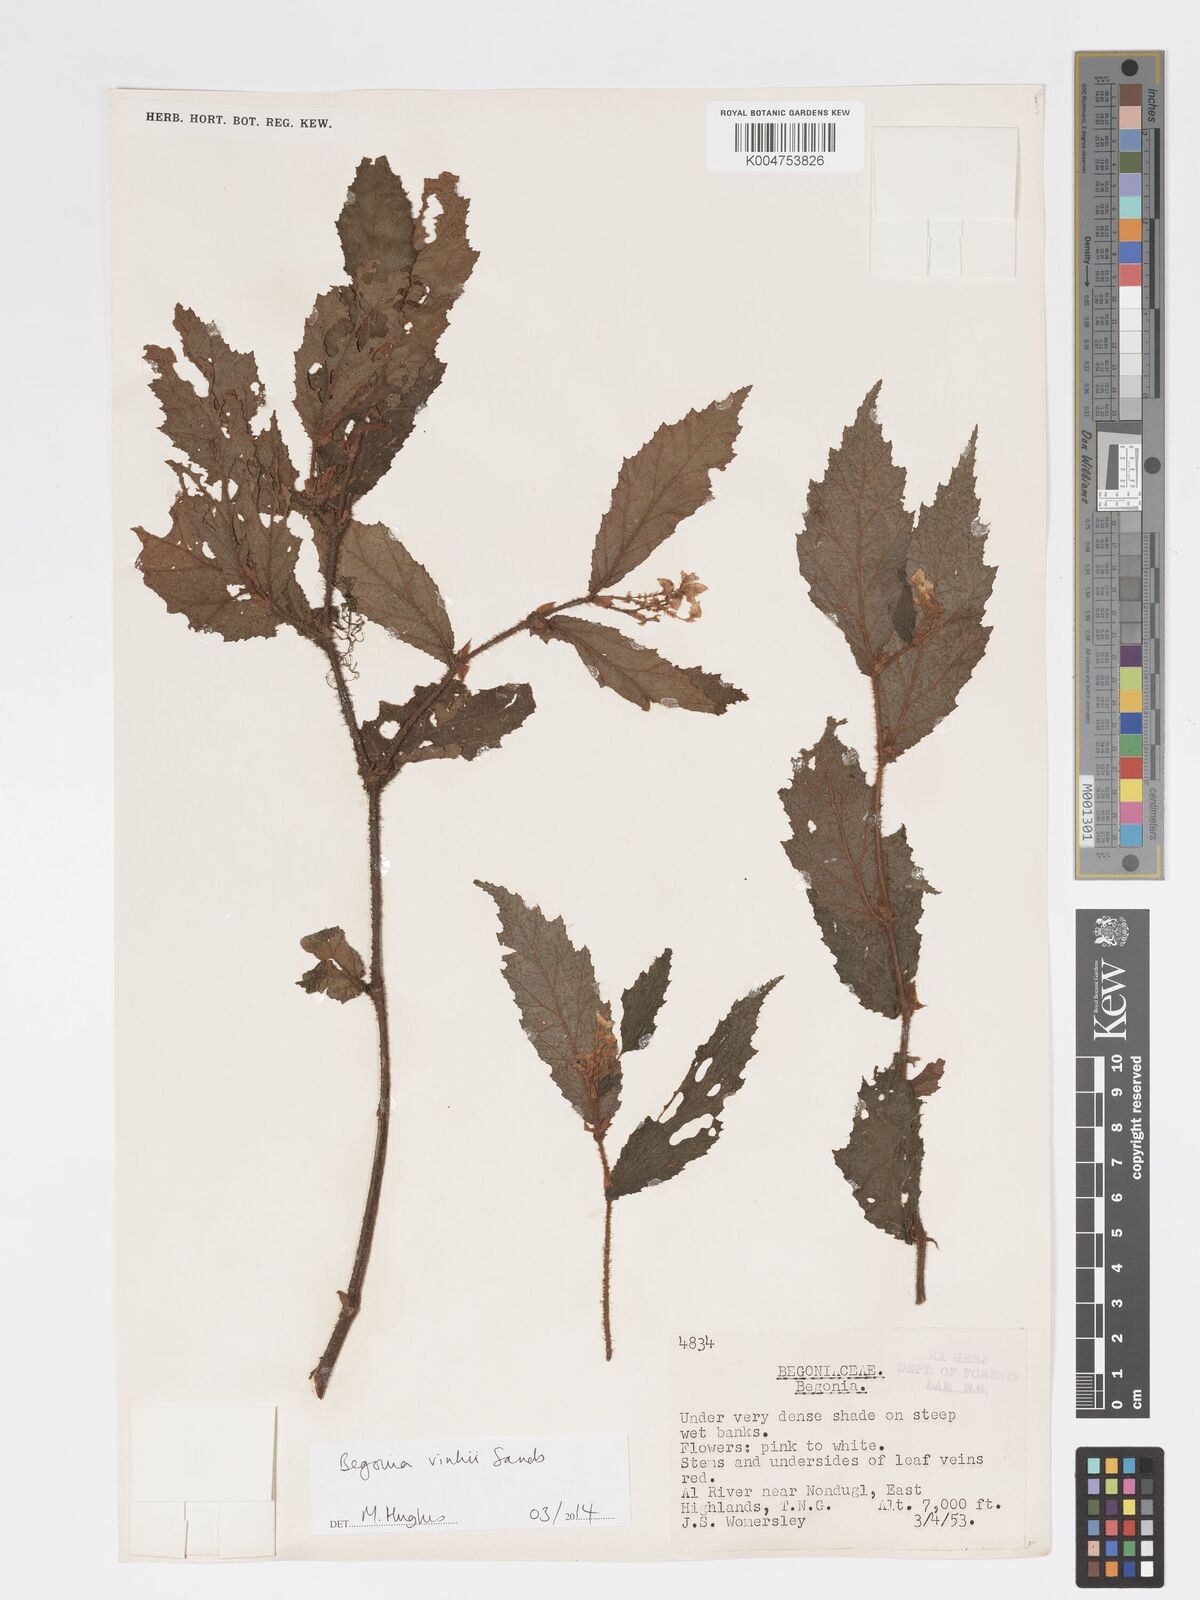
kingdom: Plantae
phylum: Tracheophyta
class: Magnoliopsida
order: Cucurbitales
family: Begoniaceae
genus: Begonia
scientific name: Begonia vinkii
